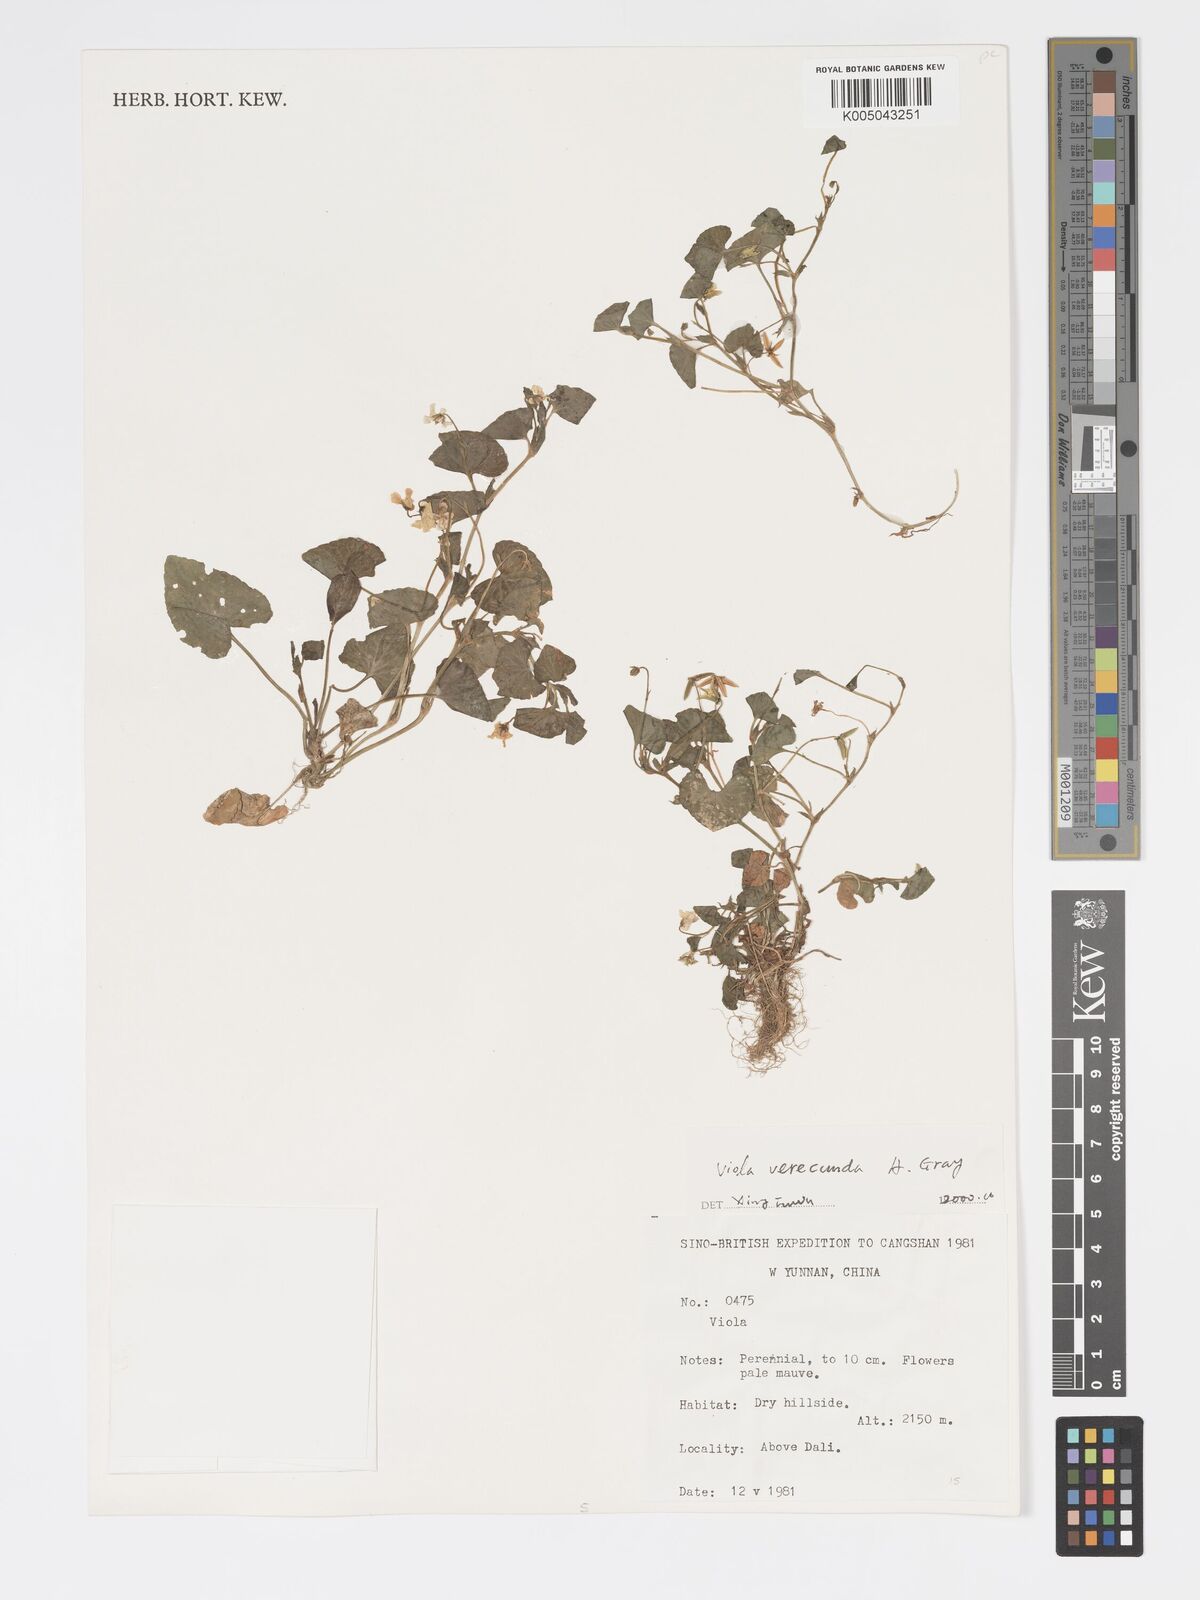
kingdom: Plantae
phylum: Tracheophyta
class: Magnoliopsida
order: Malpighiales
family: Violaceae
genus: Viola
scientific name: Viola hamiltoniana
